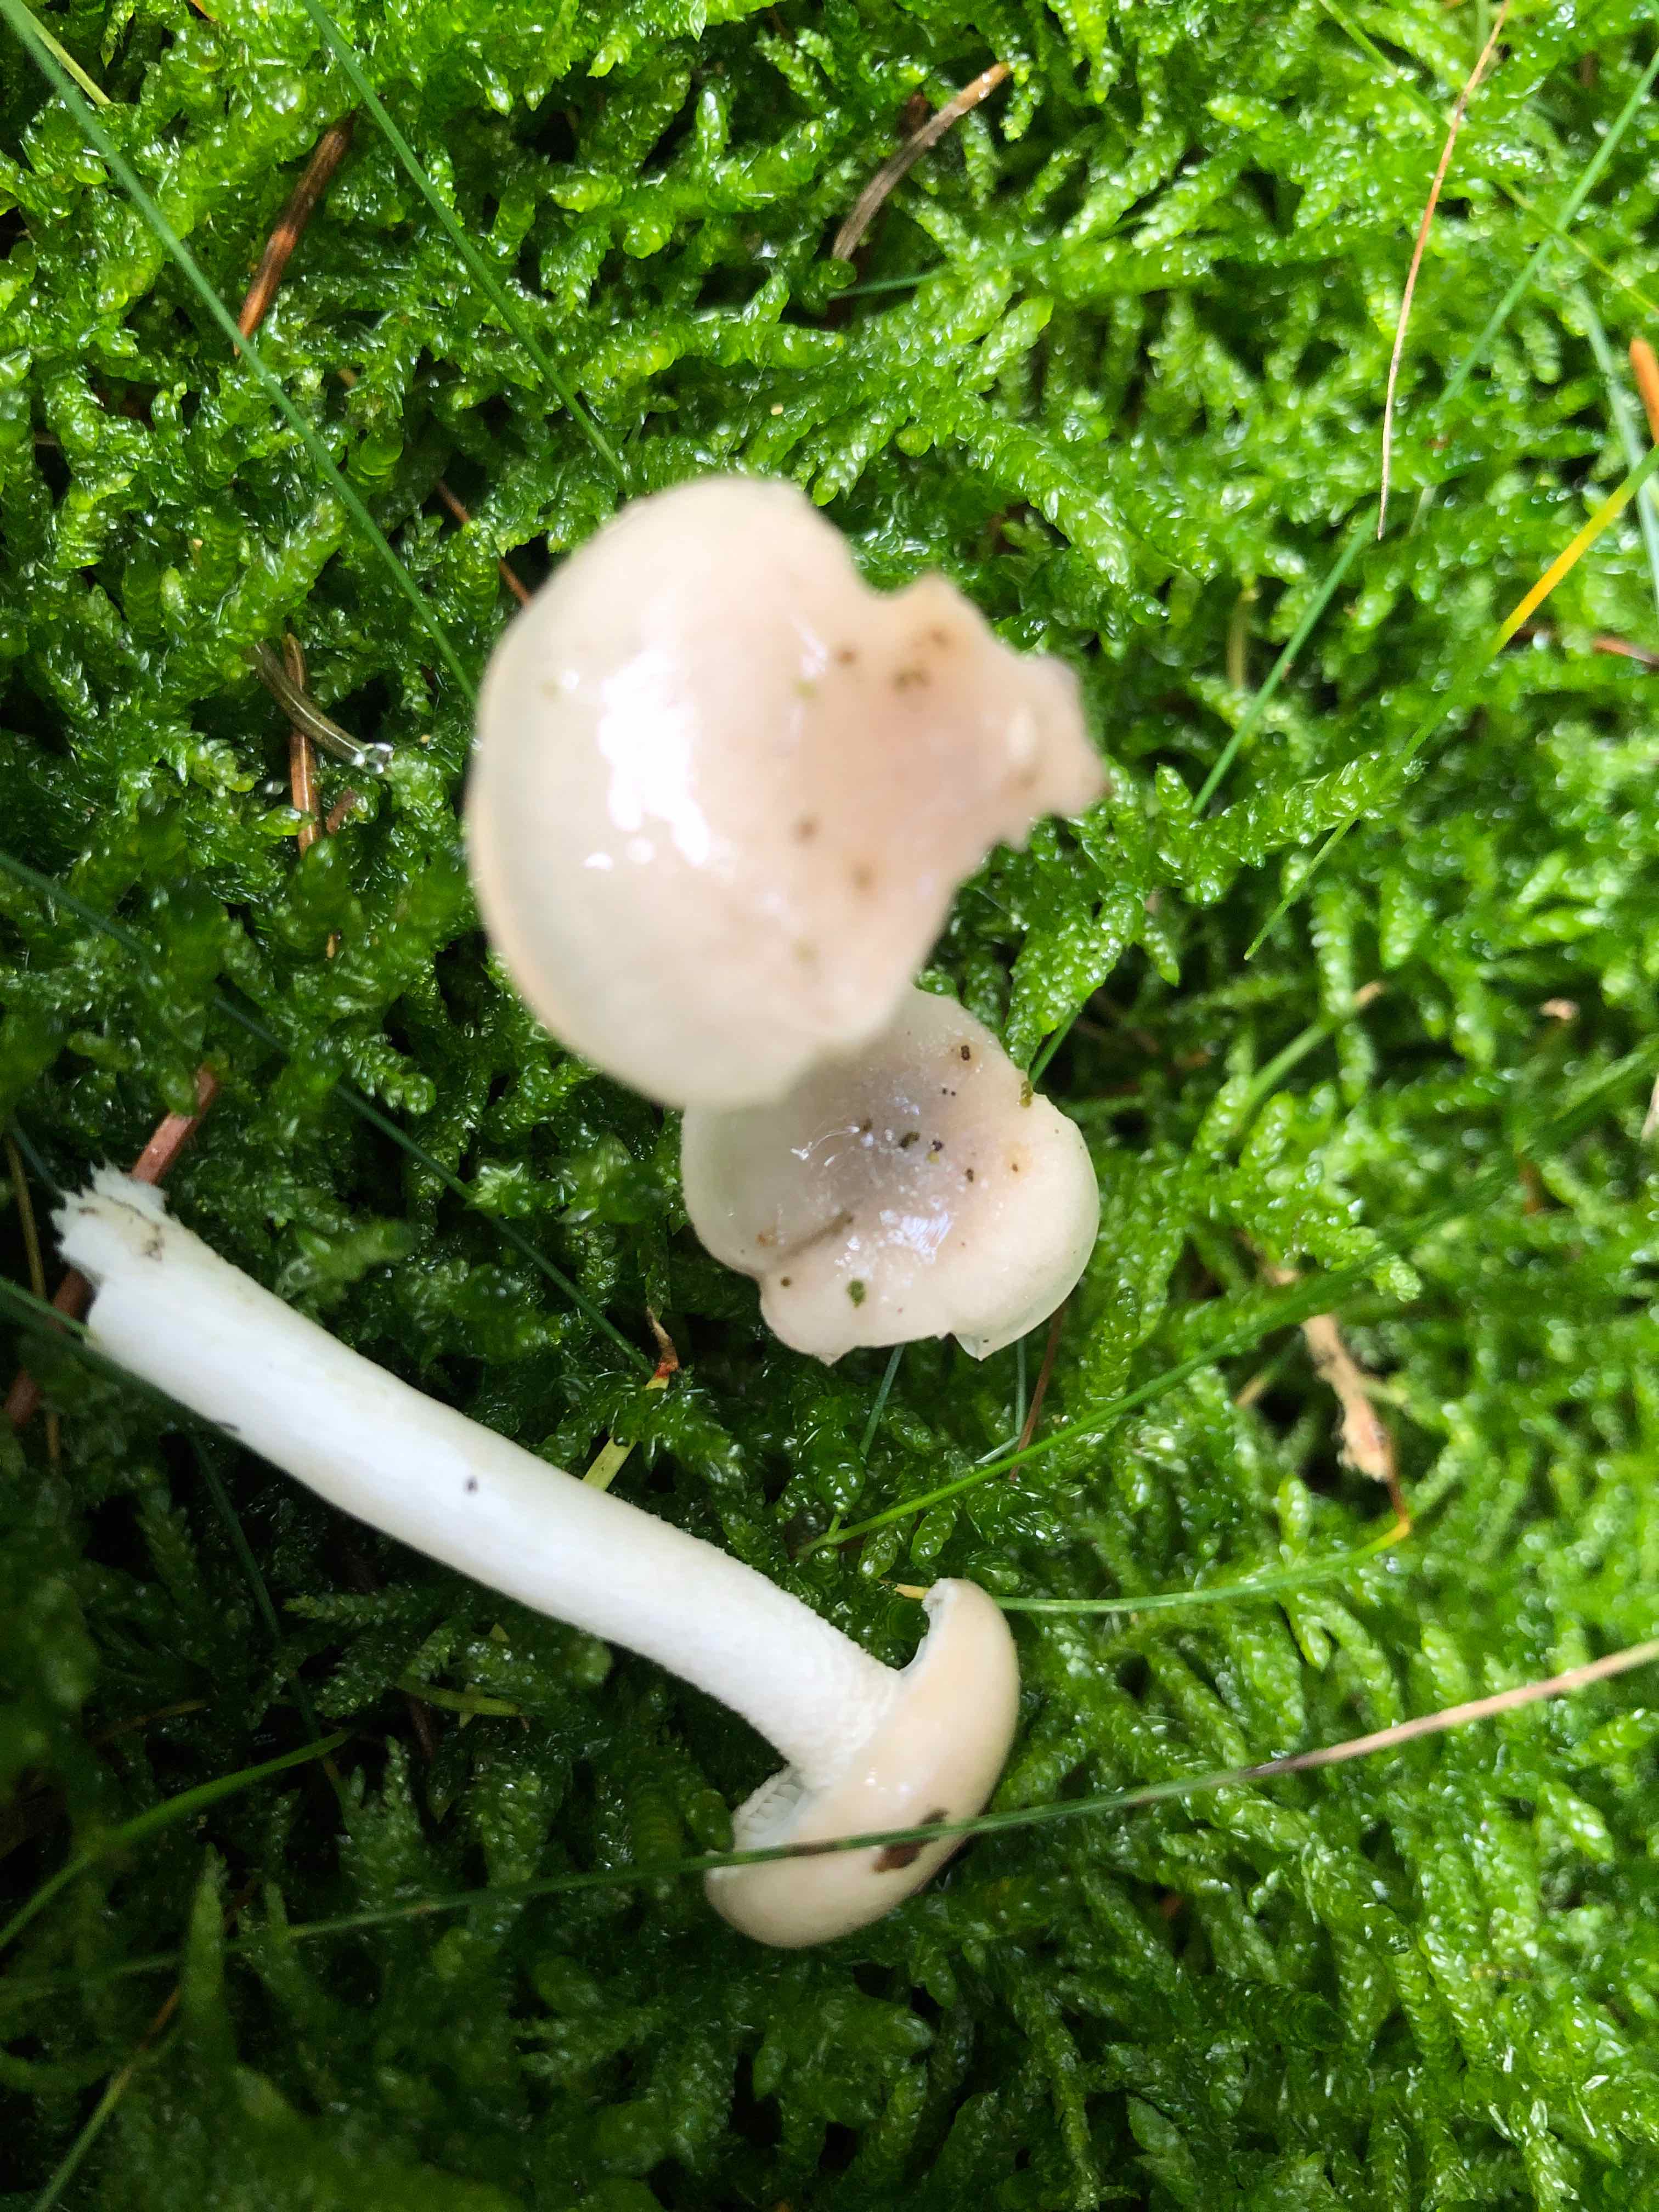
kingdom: Fungi
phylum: Basidiomycota
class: Agaricomycetes
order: Agaricales
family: Hygrophoraceae
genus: Hygrophorus
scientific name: Hygrophorus
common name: sneglehat
